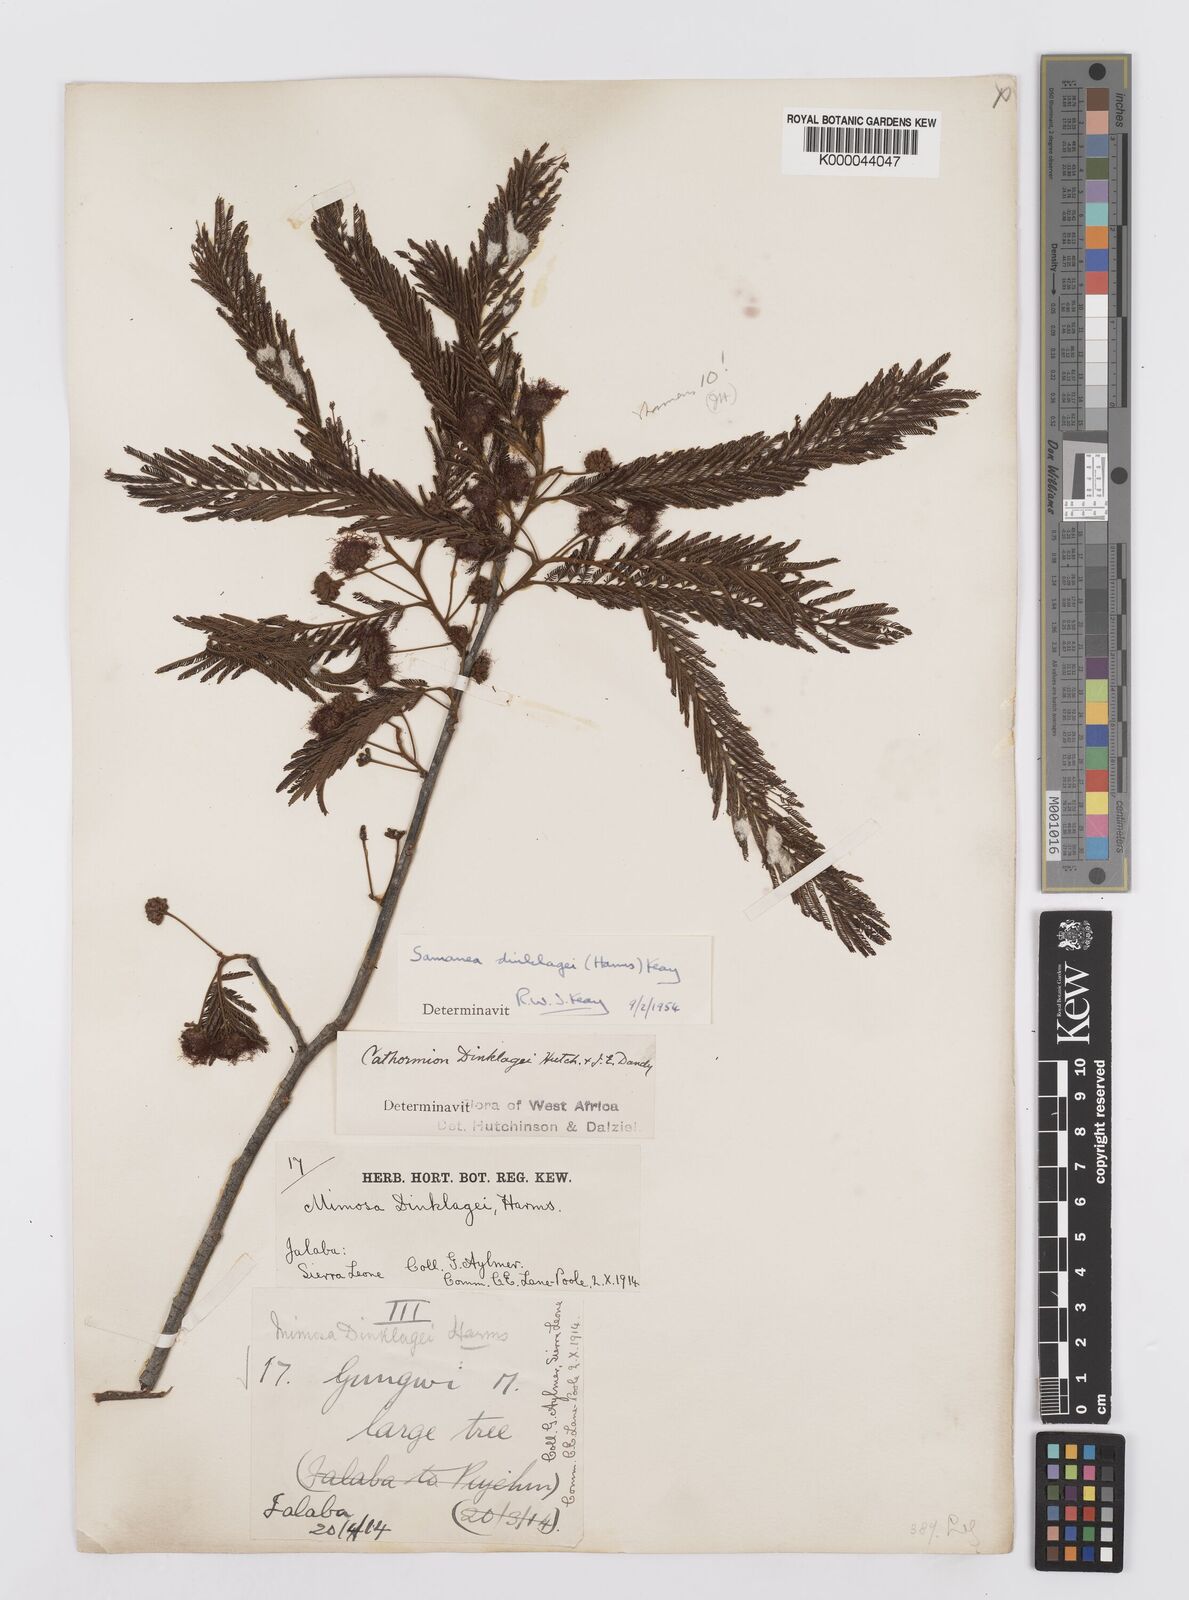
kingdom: Plantae
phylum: Tracheophyta
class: Magnoliopsida
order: Fabales
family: Fabaceae
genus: Albizia
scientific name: Albizia dinklagei
